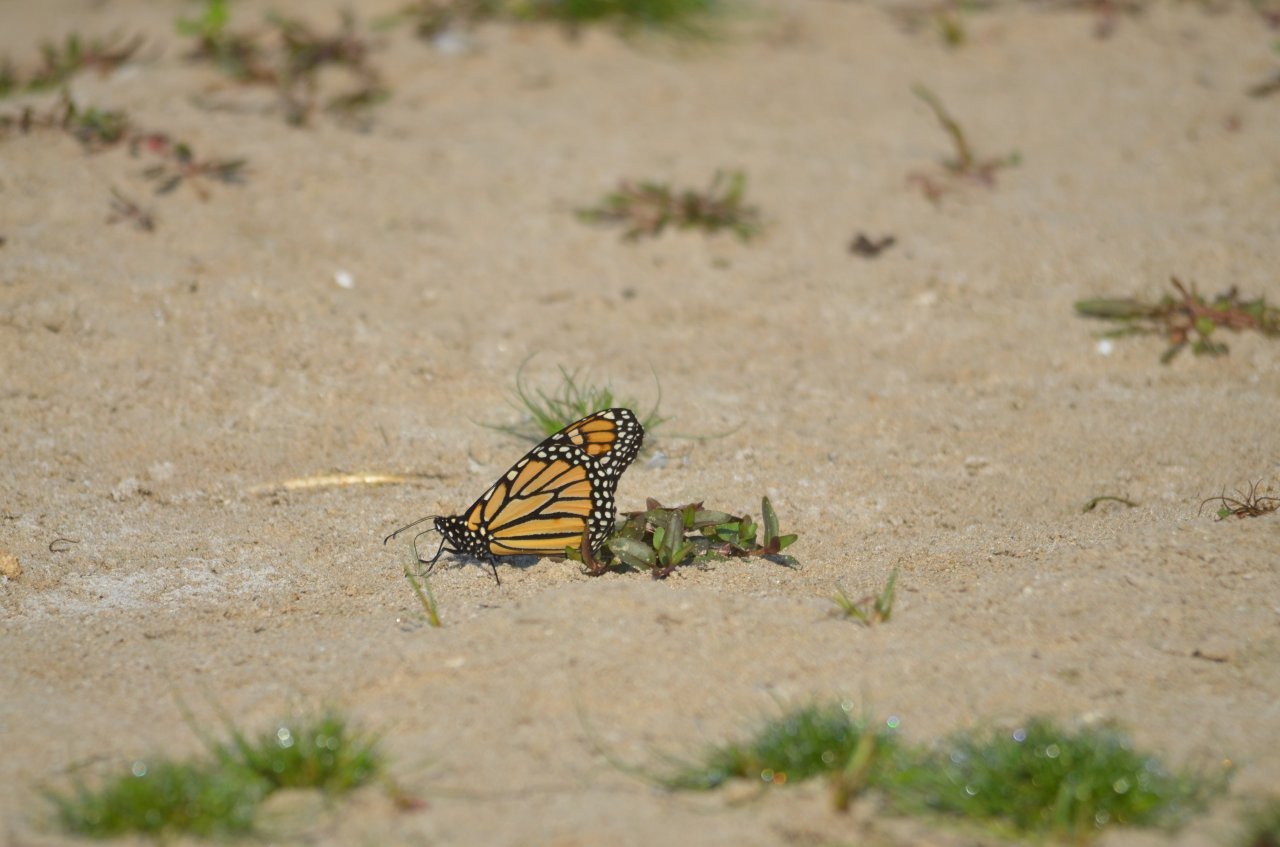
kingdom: Animalia
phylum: Arthropoda
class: Insecta
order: Lepidoptera
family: Nymphalidae
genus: Danaus
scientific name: Danaus plexippus
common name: Monarch
